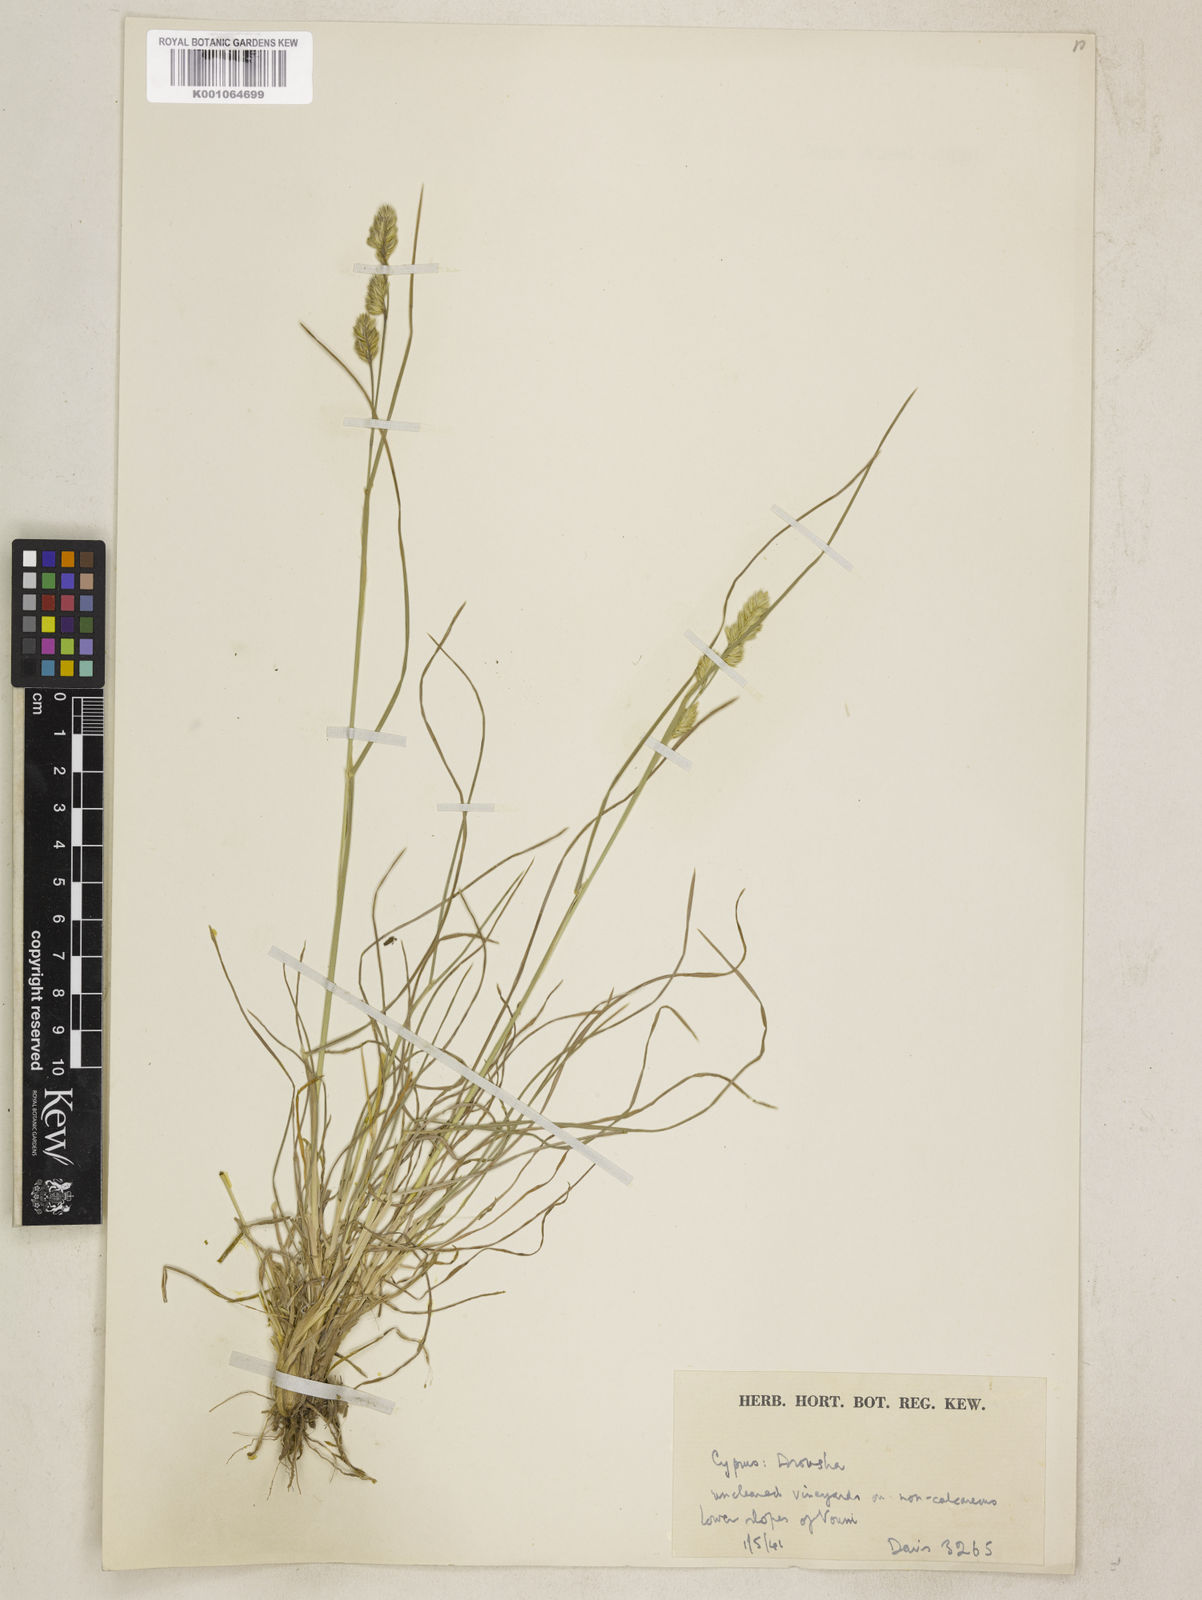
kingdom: Plantae
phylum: Tracheophyta
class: Liliopsida
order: Poales
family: Poaceae
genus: Dactylis
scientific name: Dactylis glomerata
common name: Orchardgrass
